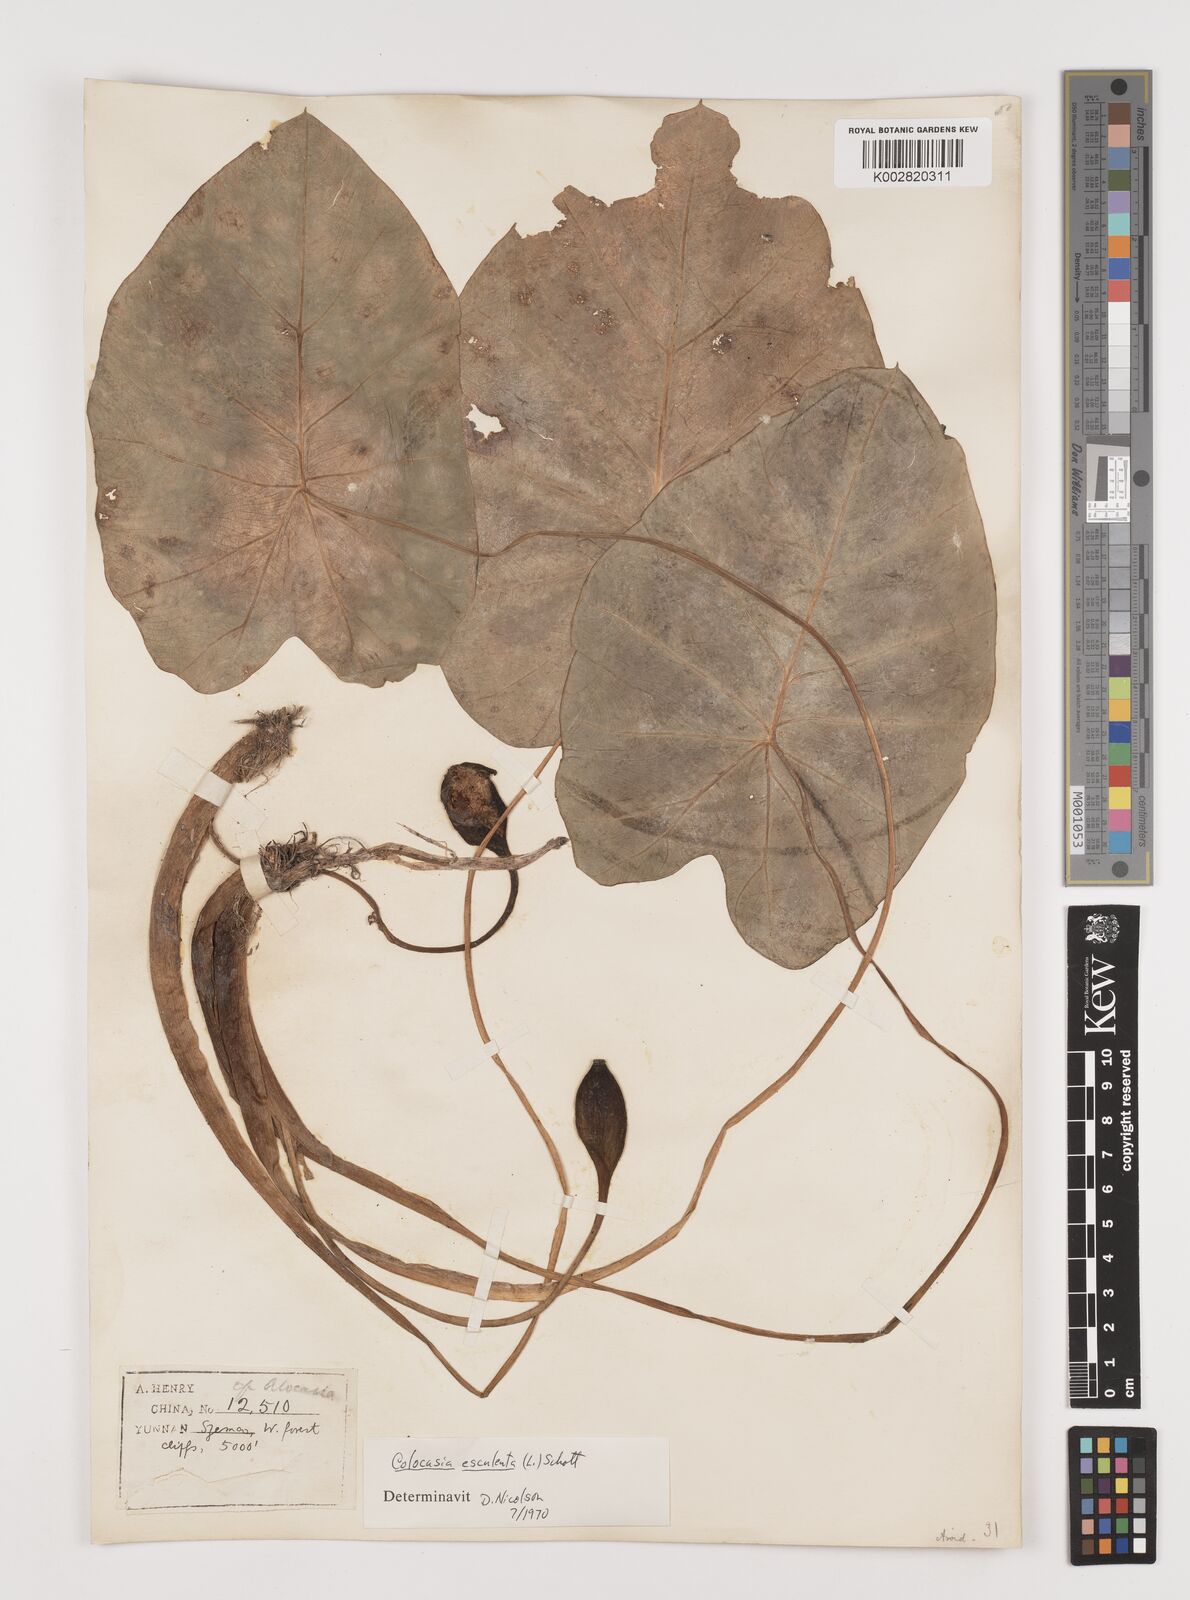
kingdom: Plantae
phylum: Tracheophyta
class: Liliopsida
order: Alismatales
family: Araceae
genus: Colocasia
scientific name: Colocasia esculenta
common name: Taro
